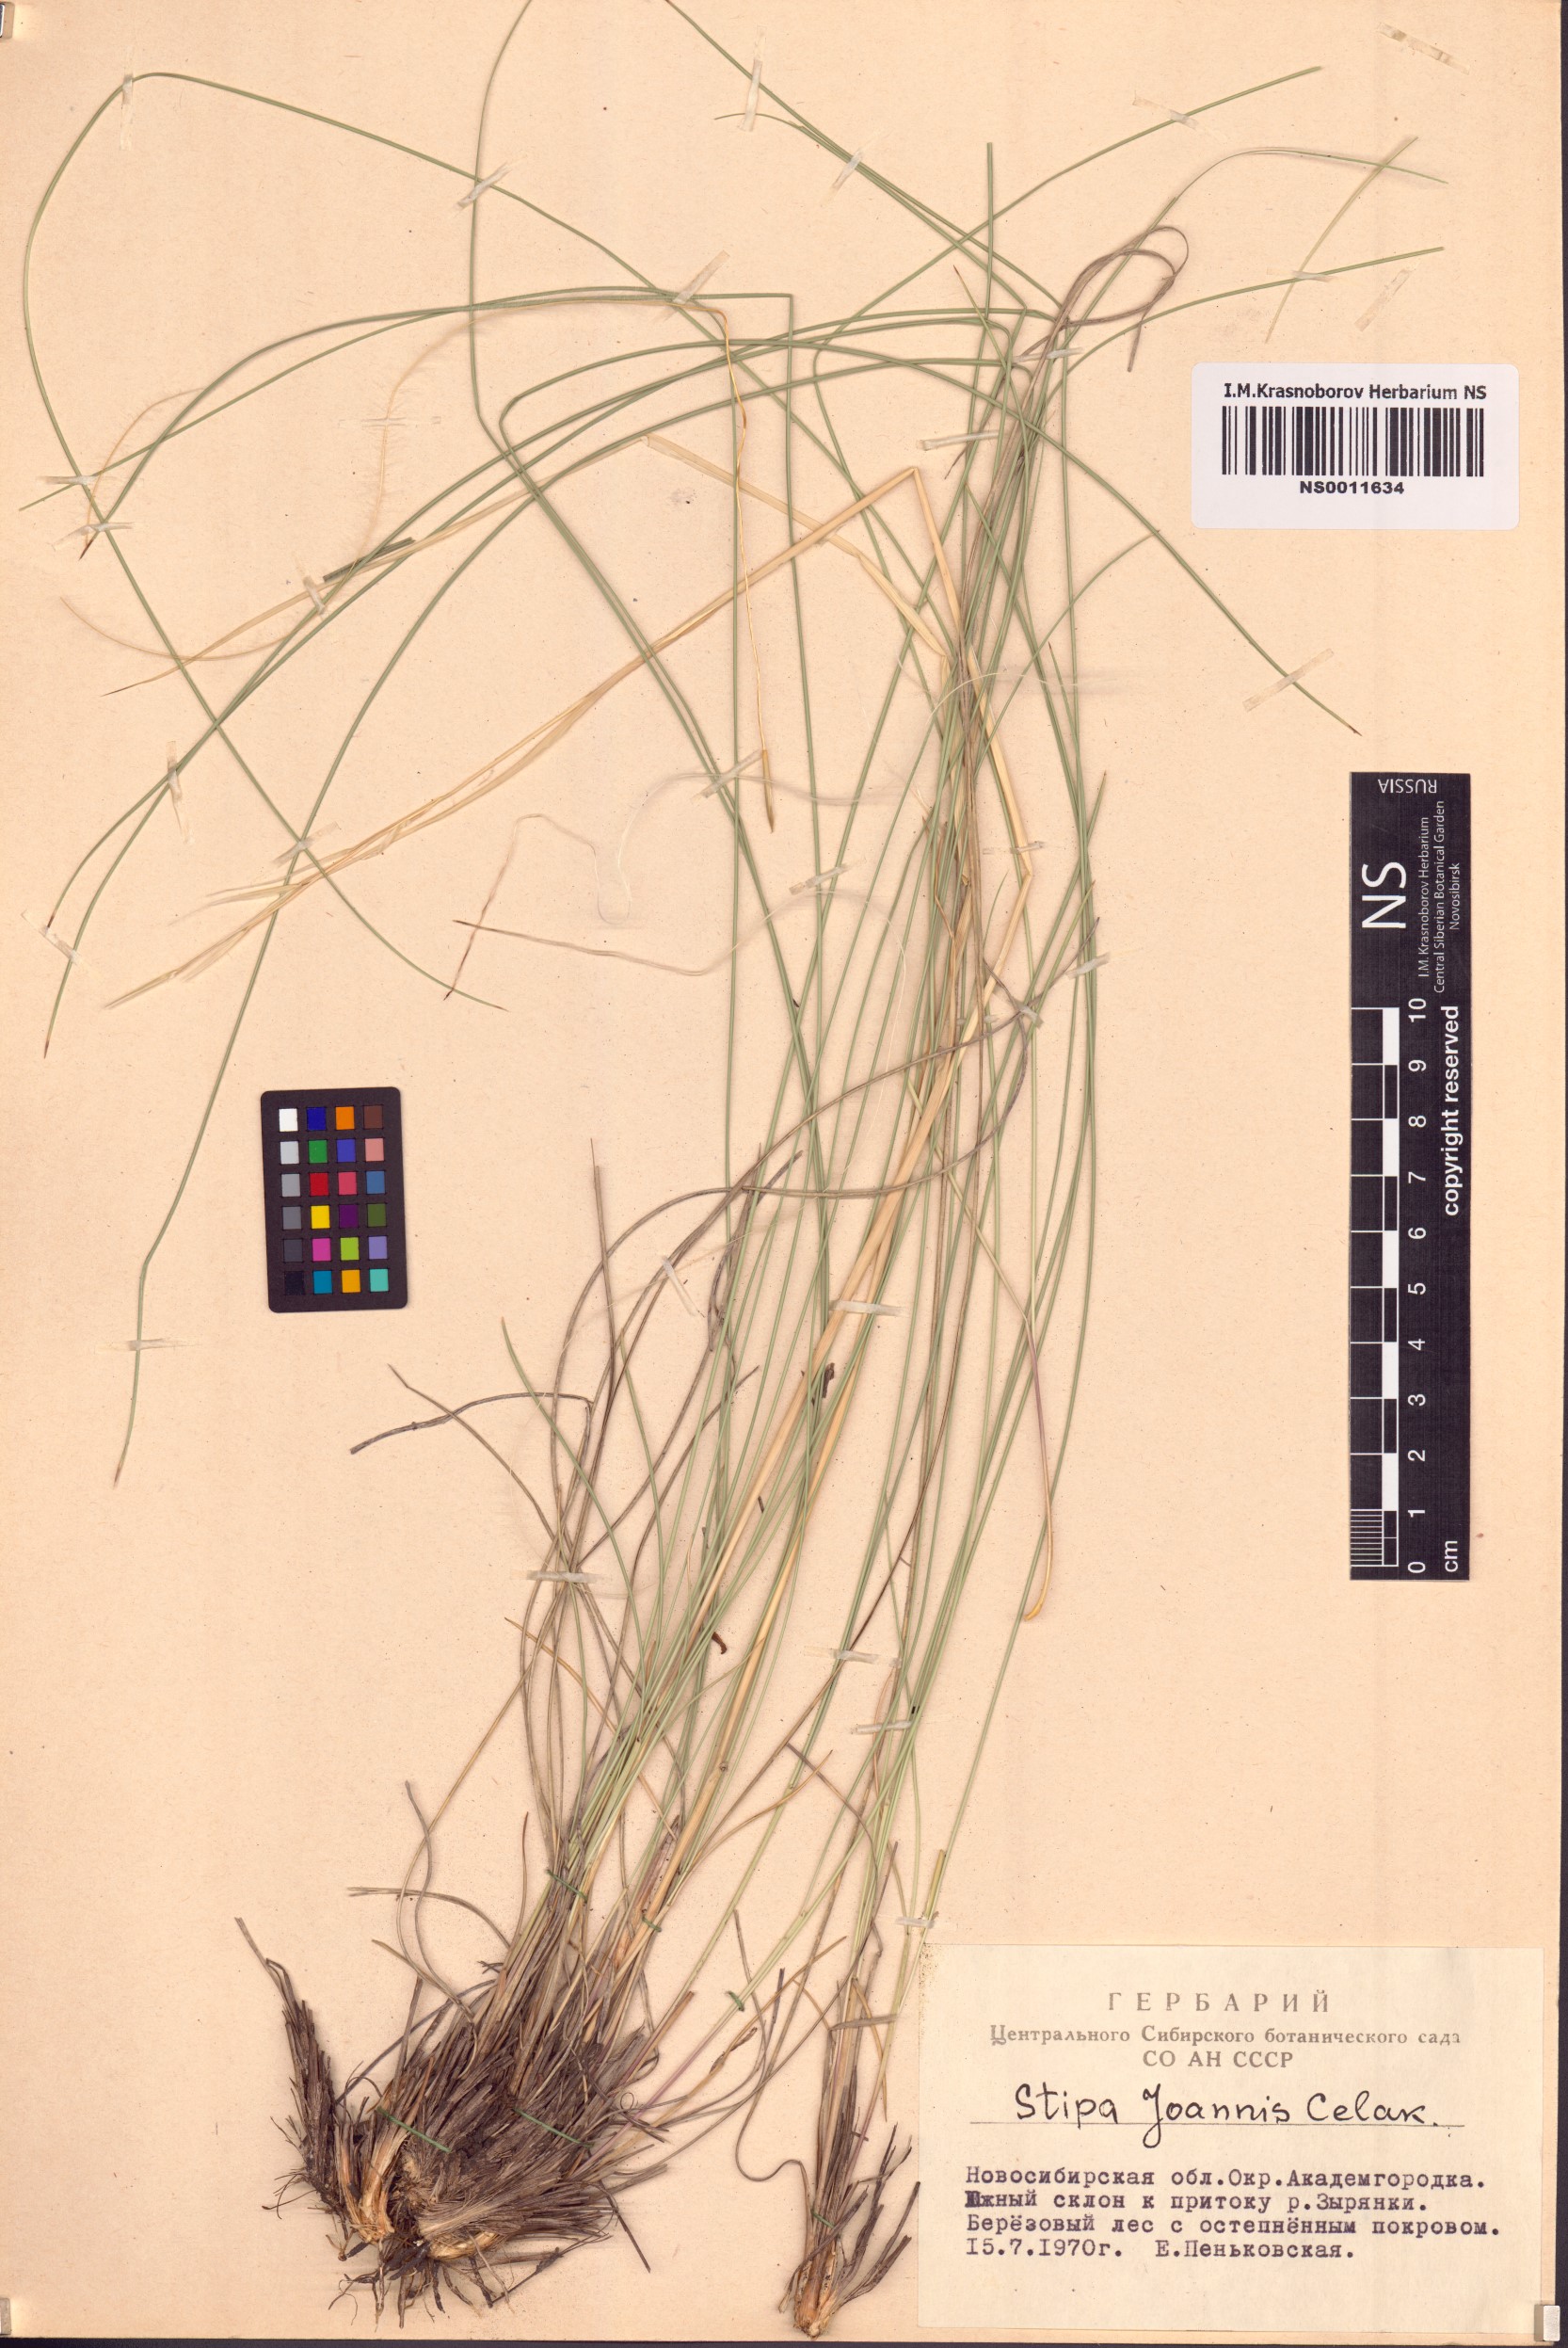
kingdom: Plantae
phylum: Tracheophyta
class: Liliopsida
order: Poales
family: Poaceae
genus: Stipa
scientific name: Stipa pennata
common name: European feather grass
